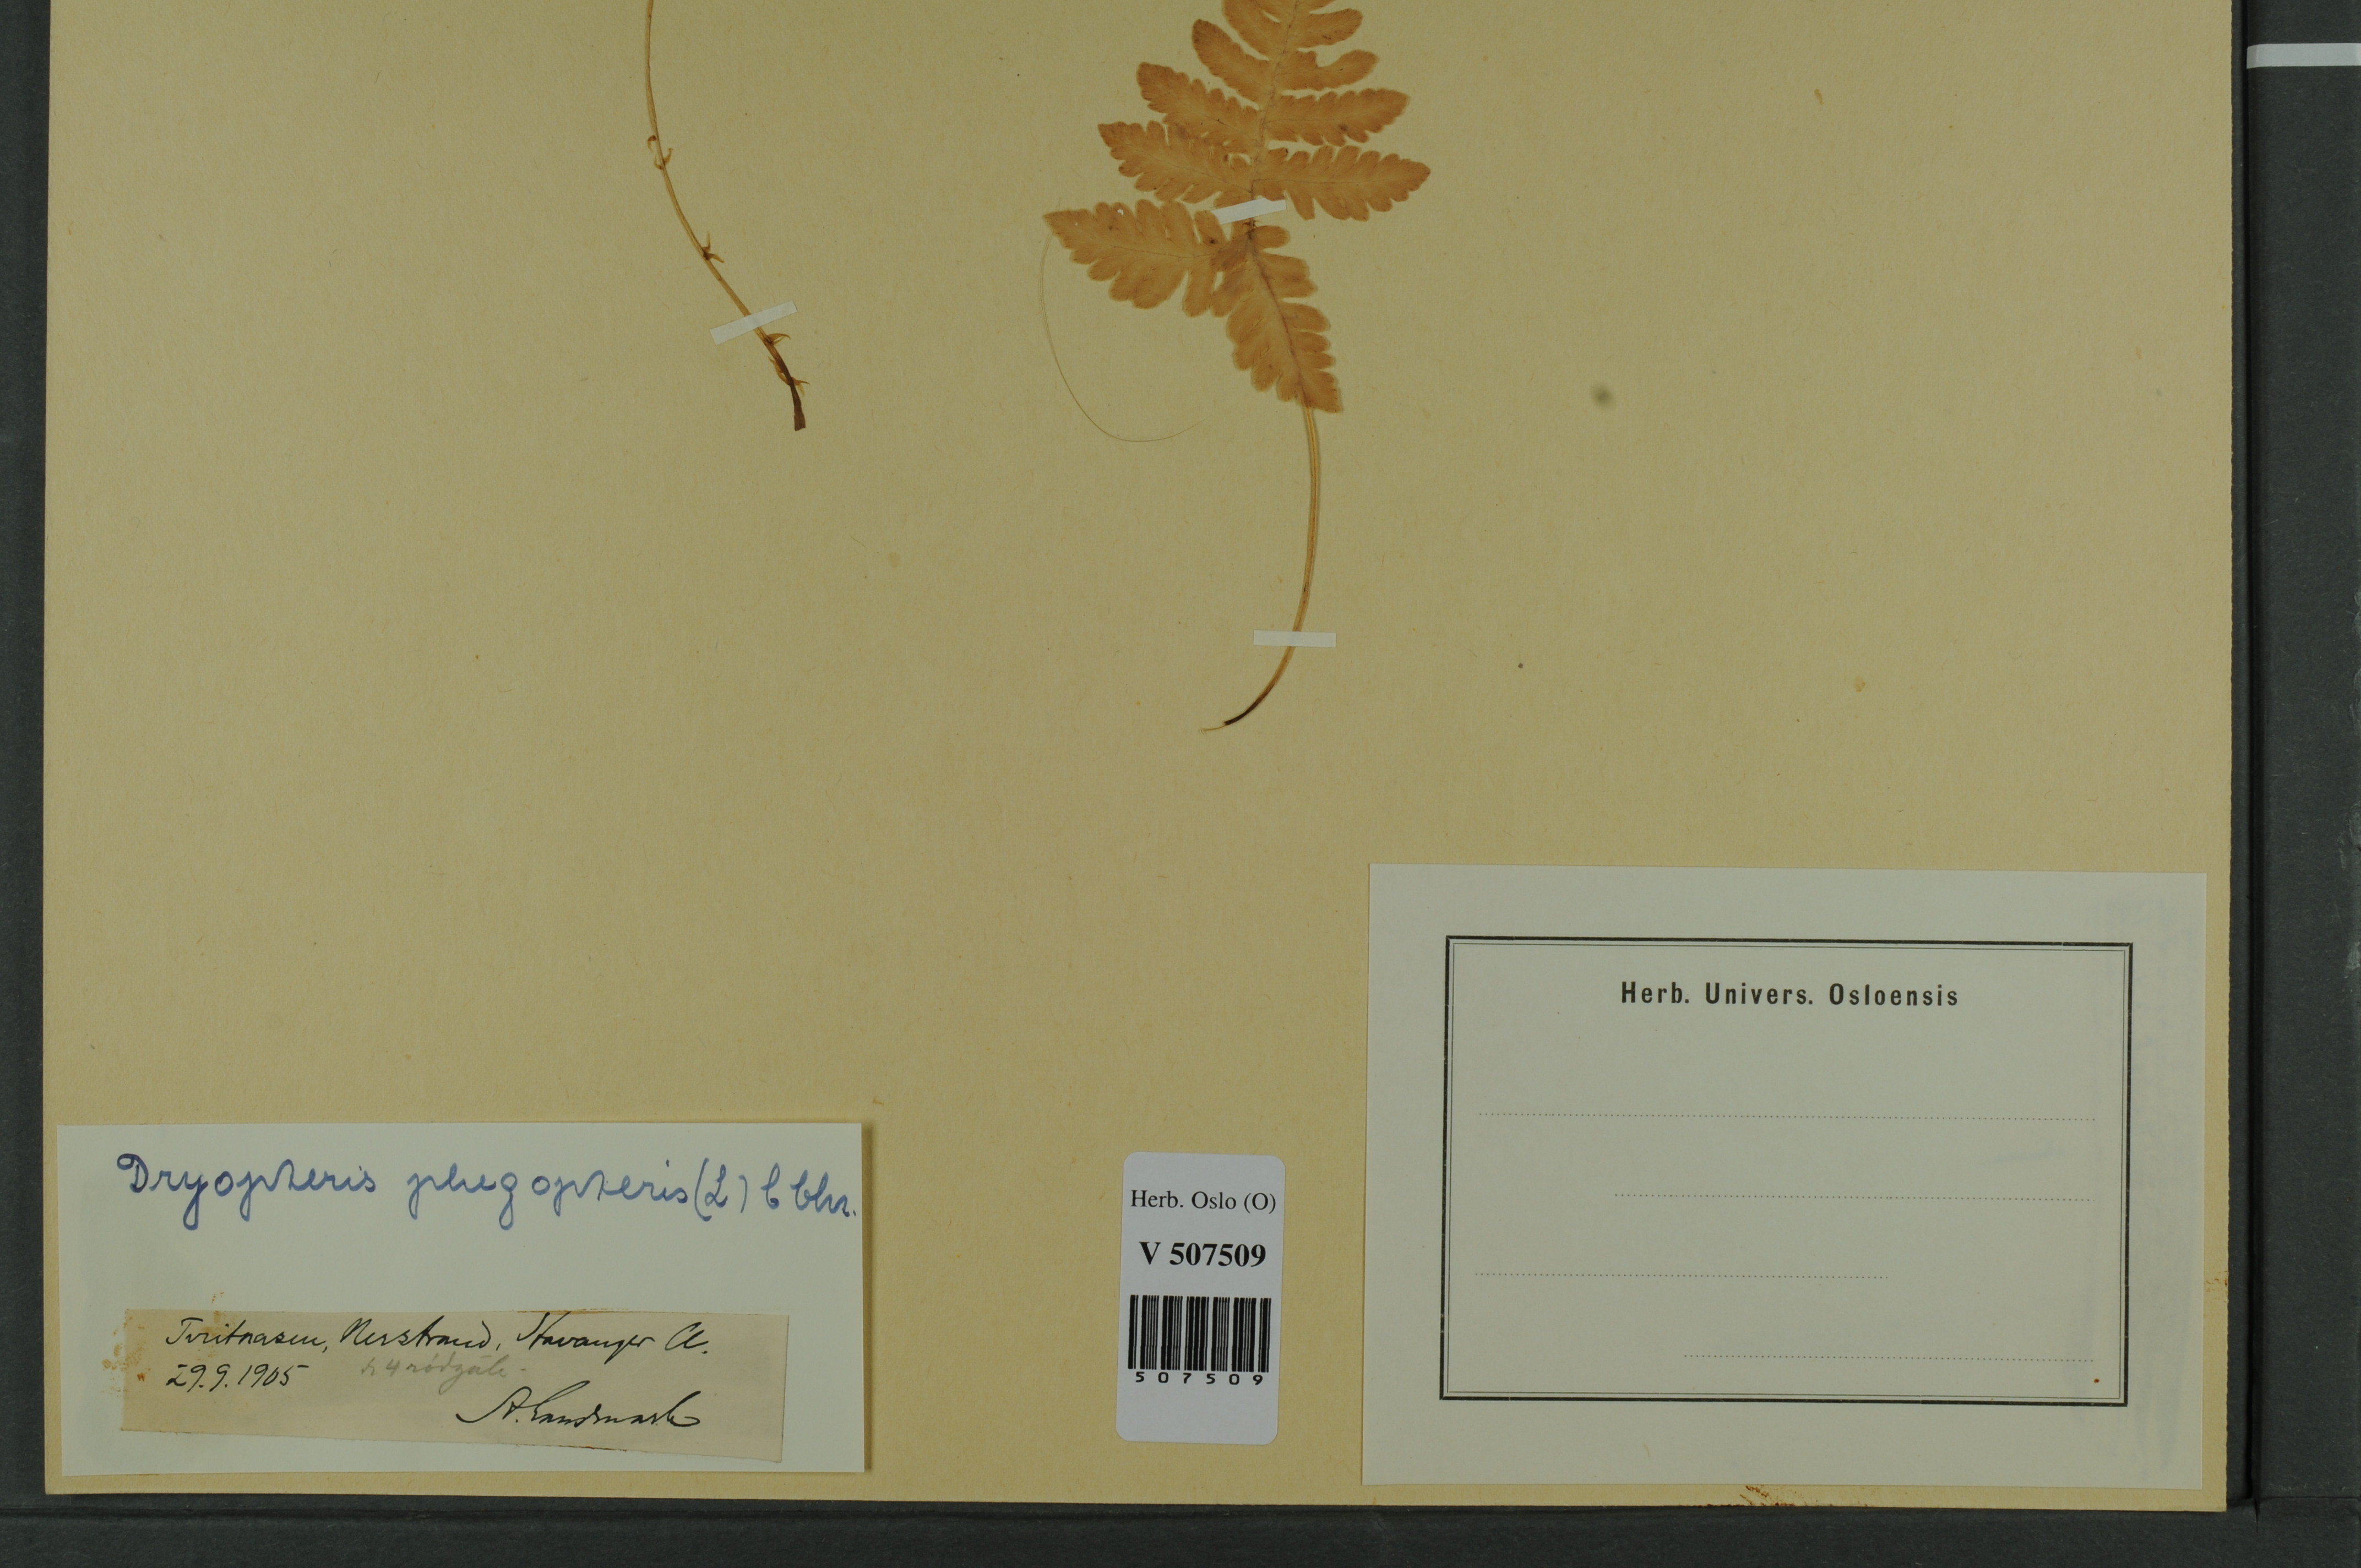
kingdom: Plantae
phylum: Tracheophyta
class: Polypodiopsida
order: Polypodiales
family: Thelypteridaceae
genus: Phegopteris
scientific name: Phegopteris connectilis
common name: Beech fern
